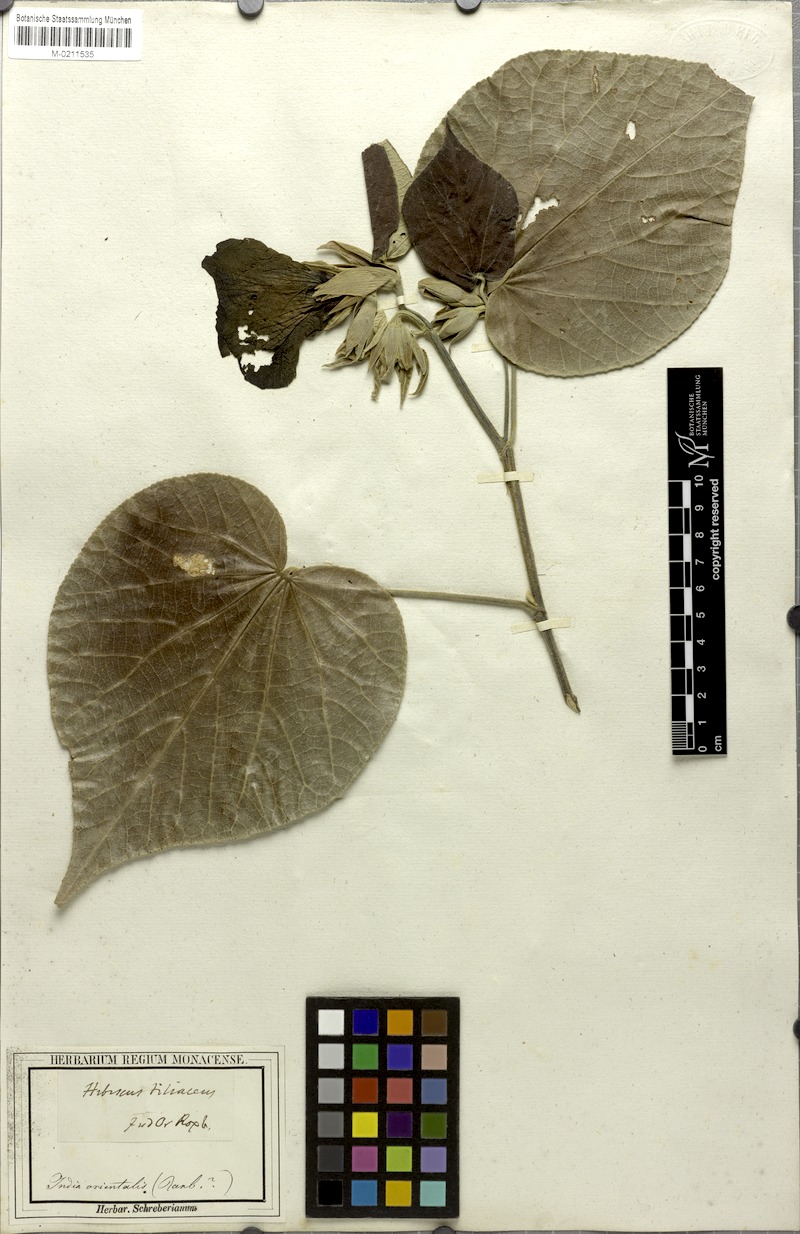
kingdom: Plantae
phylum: Tracheophyta
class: Magnoliopsida
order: Malvales
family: Malvaceae
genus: Talipariti
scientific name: Talipariti tiliaceum
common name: Sea hibiscus
